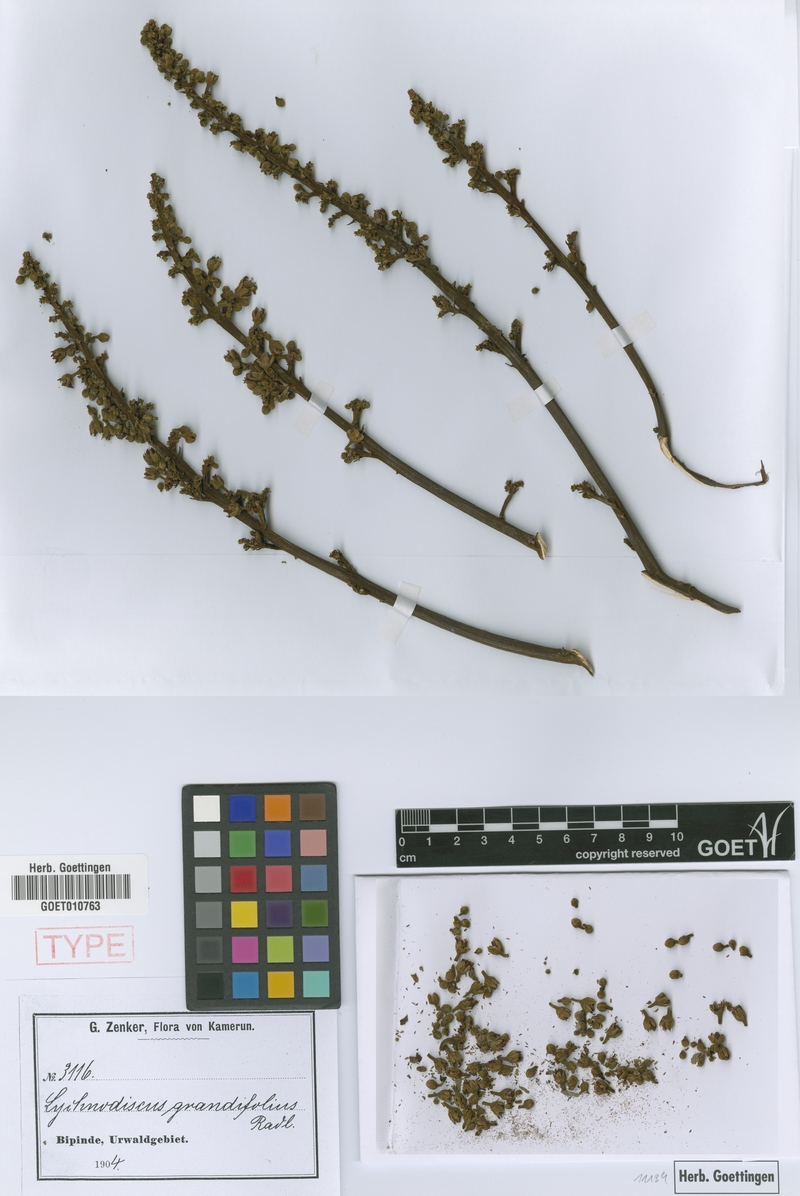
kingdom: Plantae
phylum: Tracheophyta
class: Magnoliopsida
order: Sapindales
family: Sapindaceae
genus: Lychnodiscus
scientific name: Lychnodiscus grandifolius
